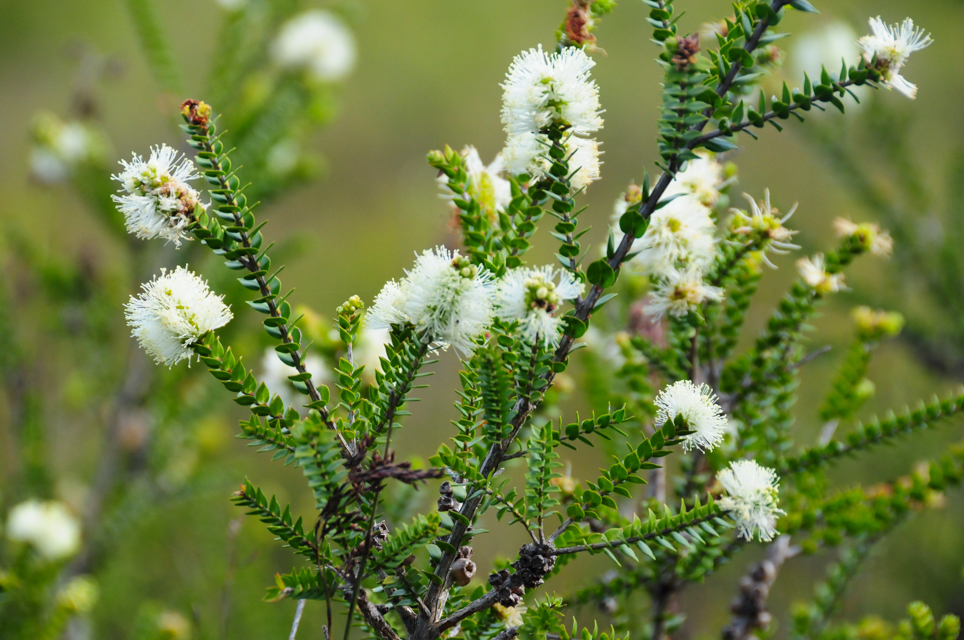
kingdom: Plantae
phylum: Tracheophyta
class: Magnoliopsida
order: Myrtales
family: Myrtaceae
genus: Melaleuca
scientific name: Melaleuca squarrosa
